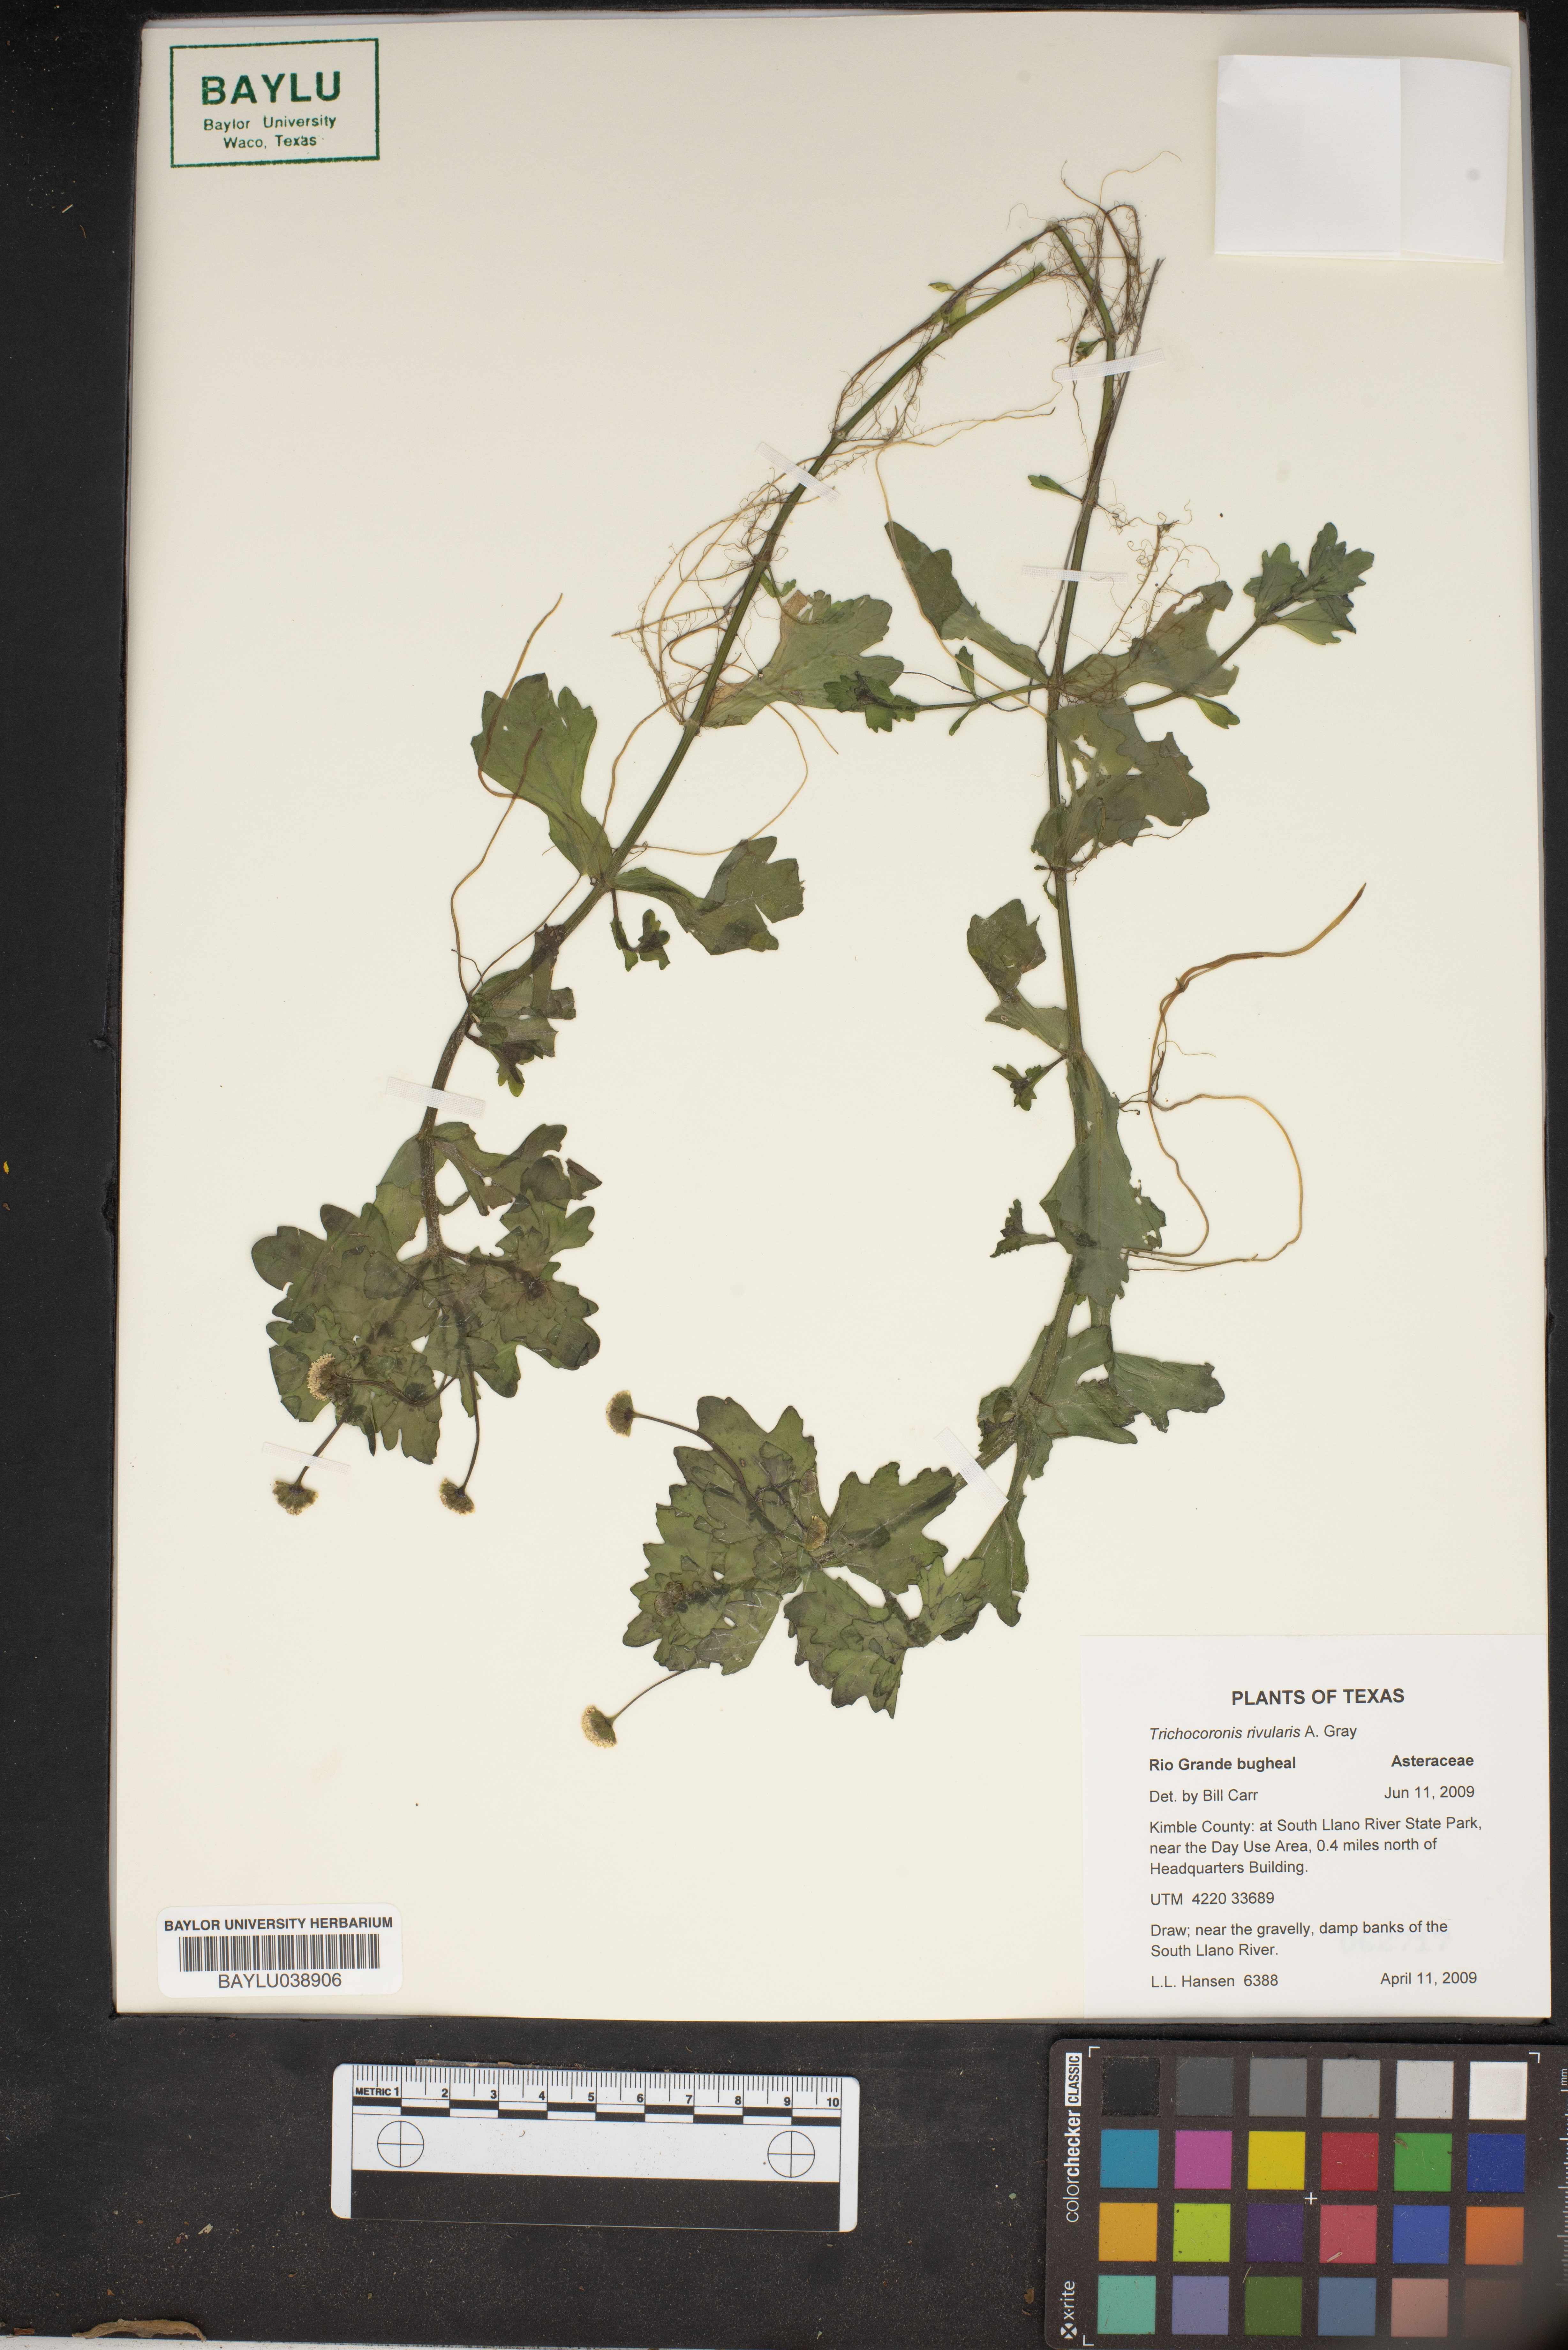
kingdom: Plantae
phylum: Tracheophyta
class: Magnoliopsida
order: Asterales
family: Asteraceae
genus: Shinnersia
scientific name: Shinnersia rivularis
